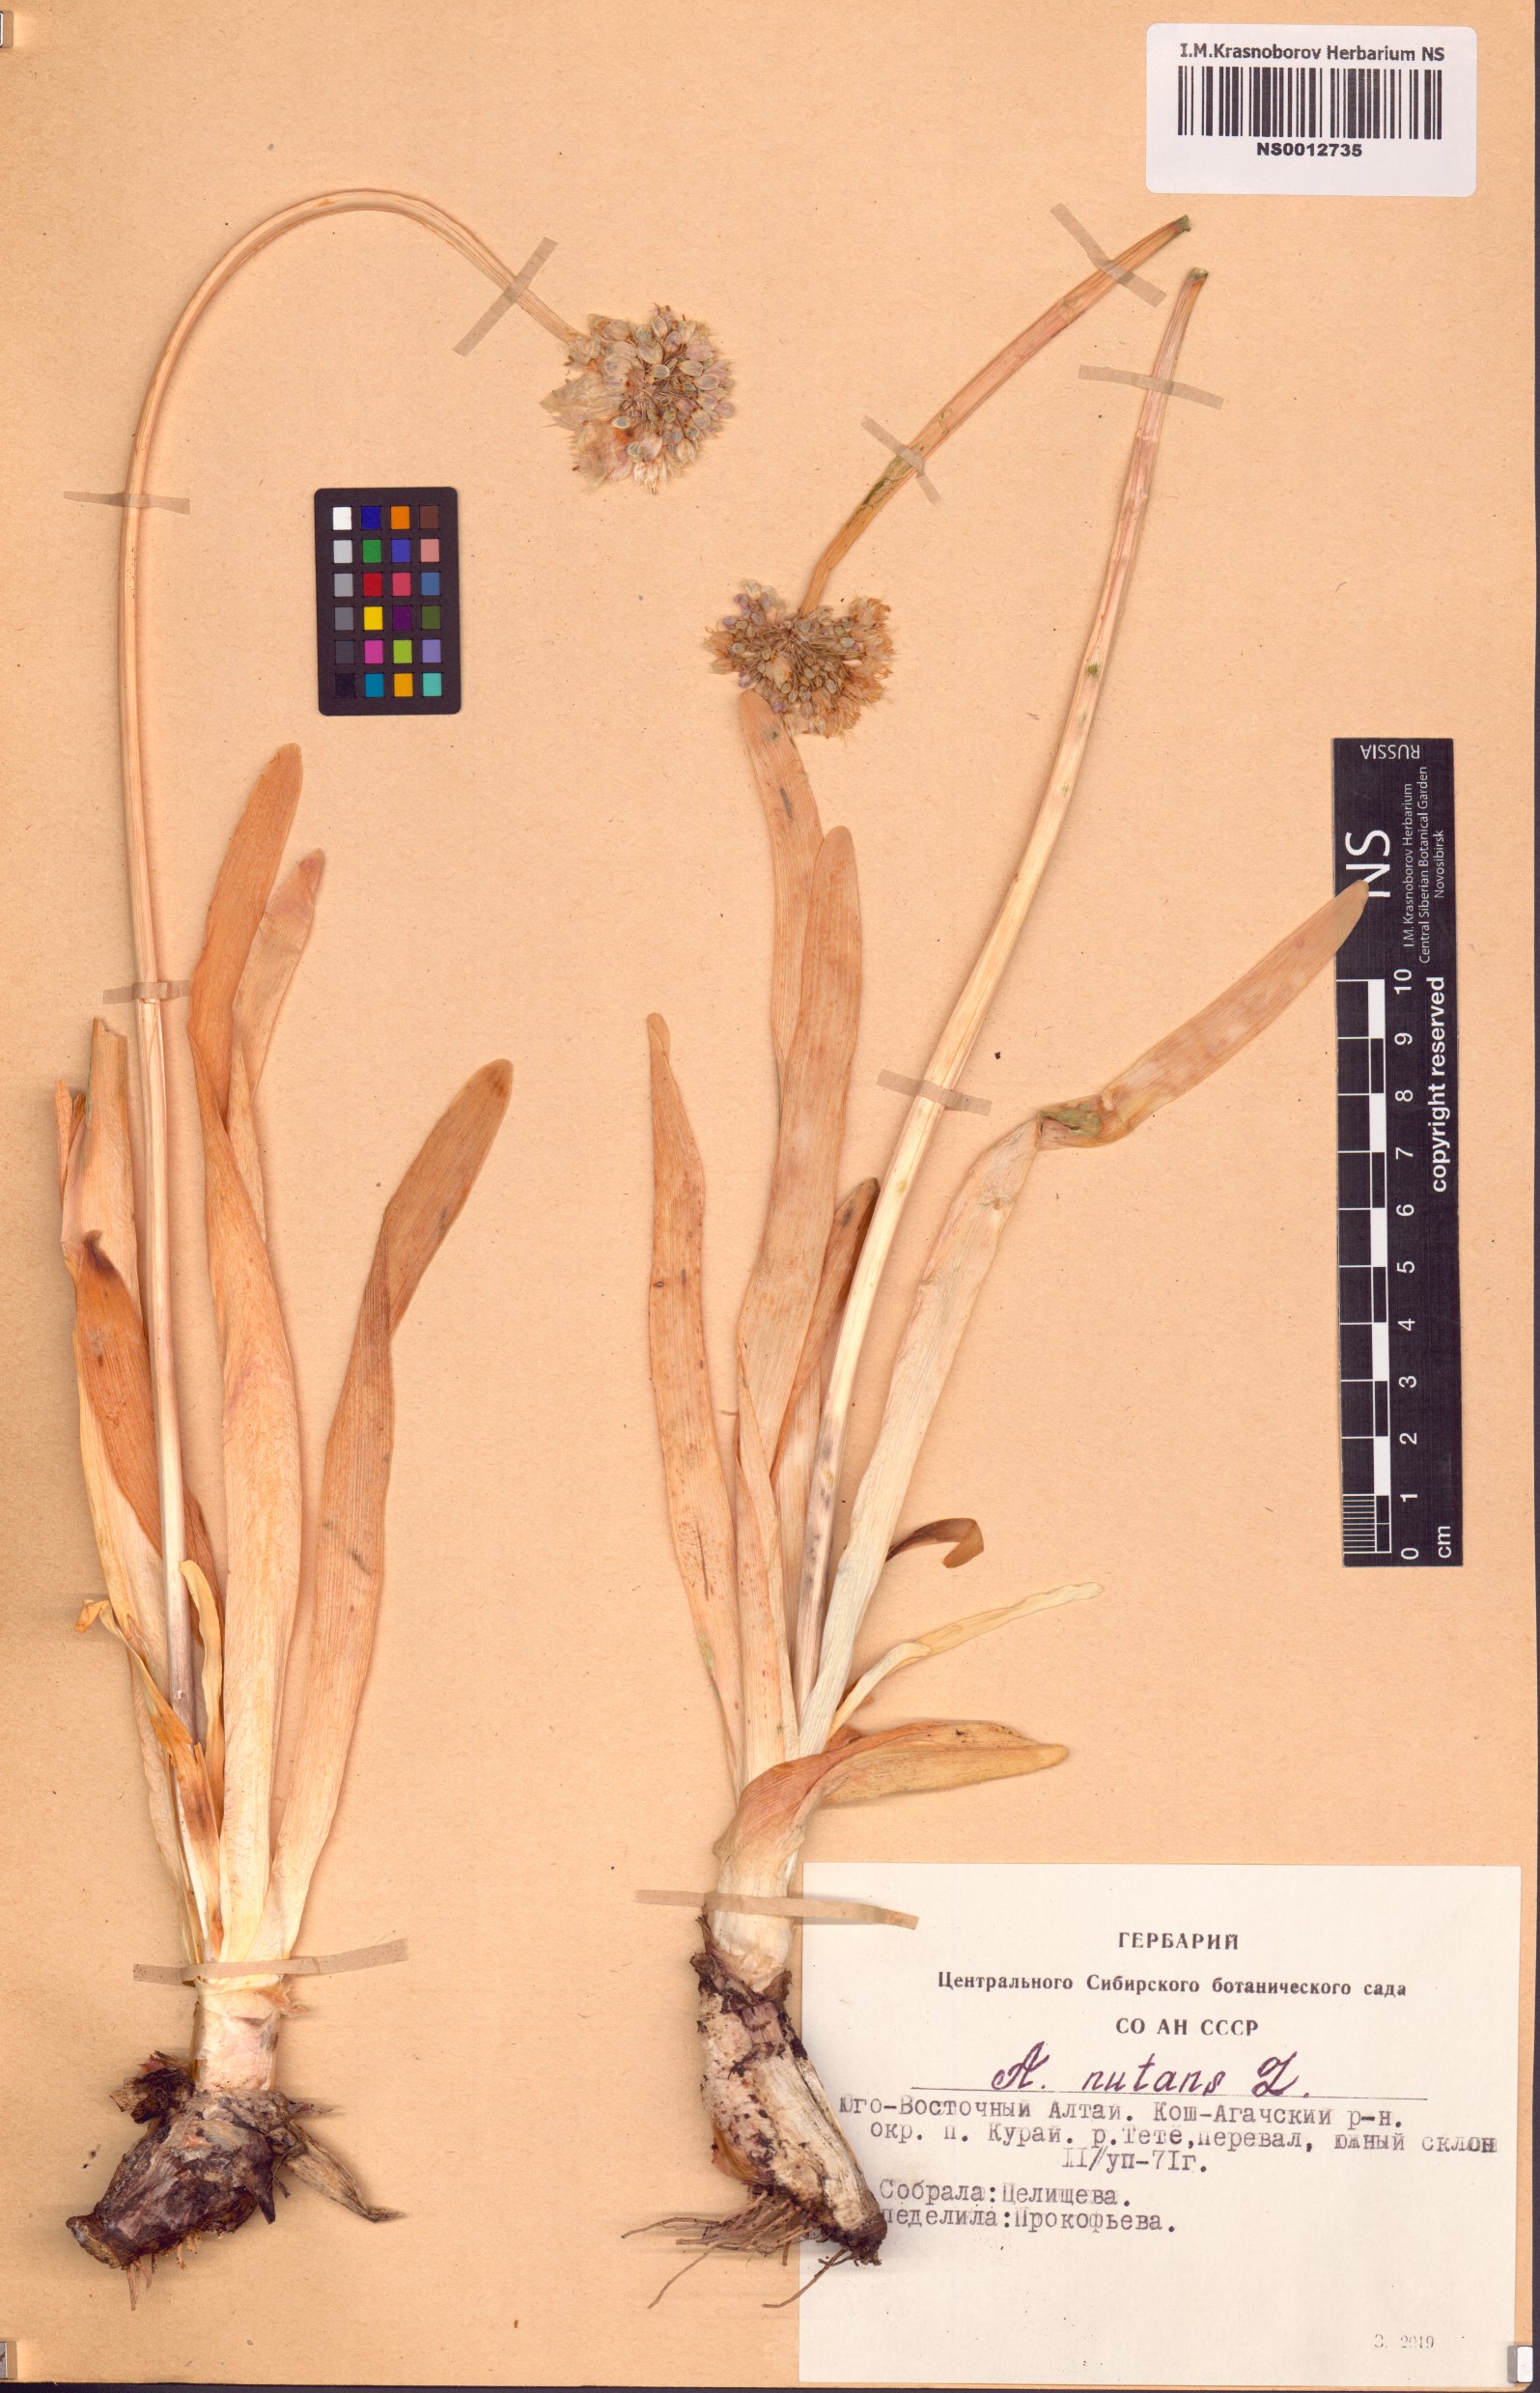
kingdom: Plantae
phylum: Tracheophyta
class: Liliopsida
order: Asparagales
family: Amaryllidaceae
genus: Allium
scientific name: Allium nutans
